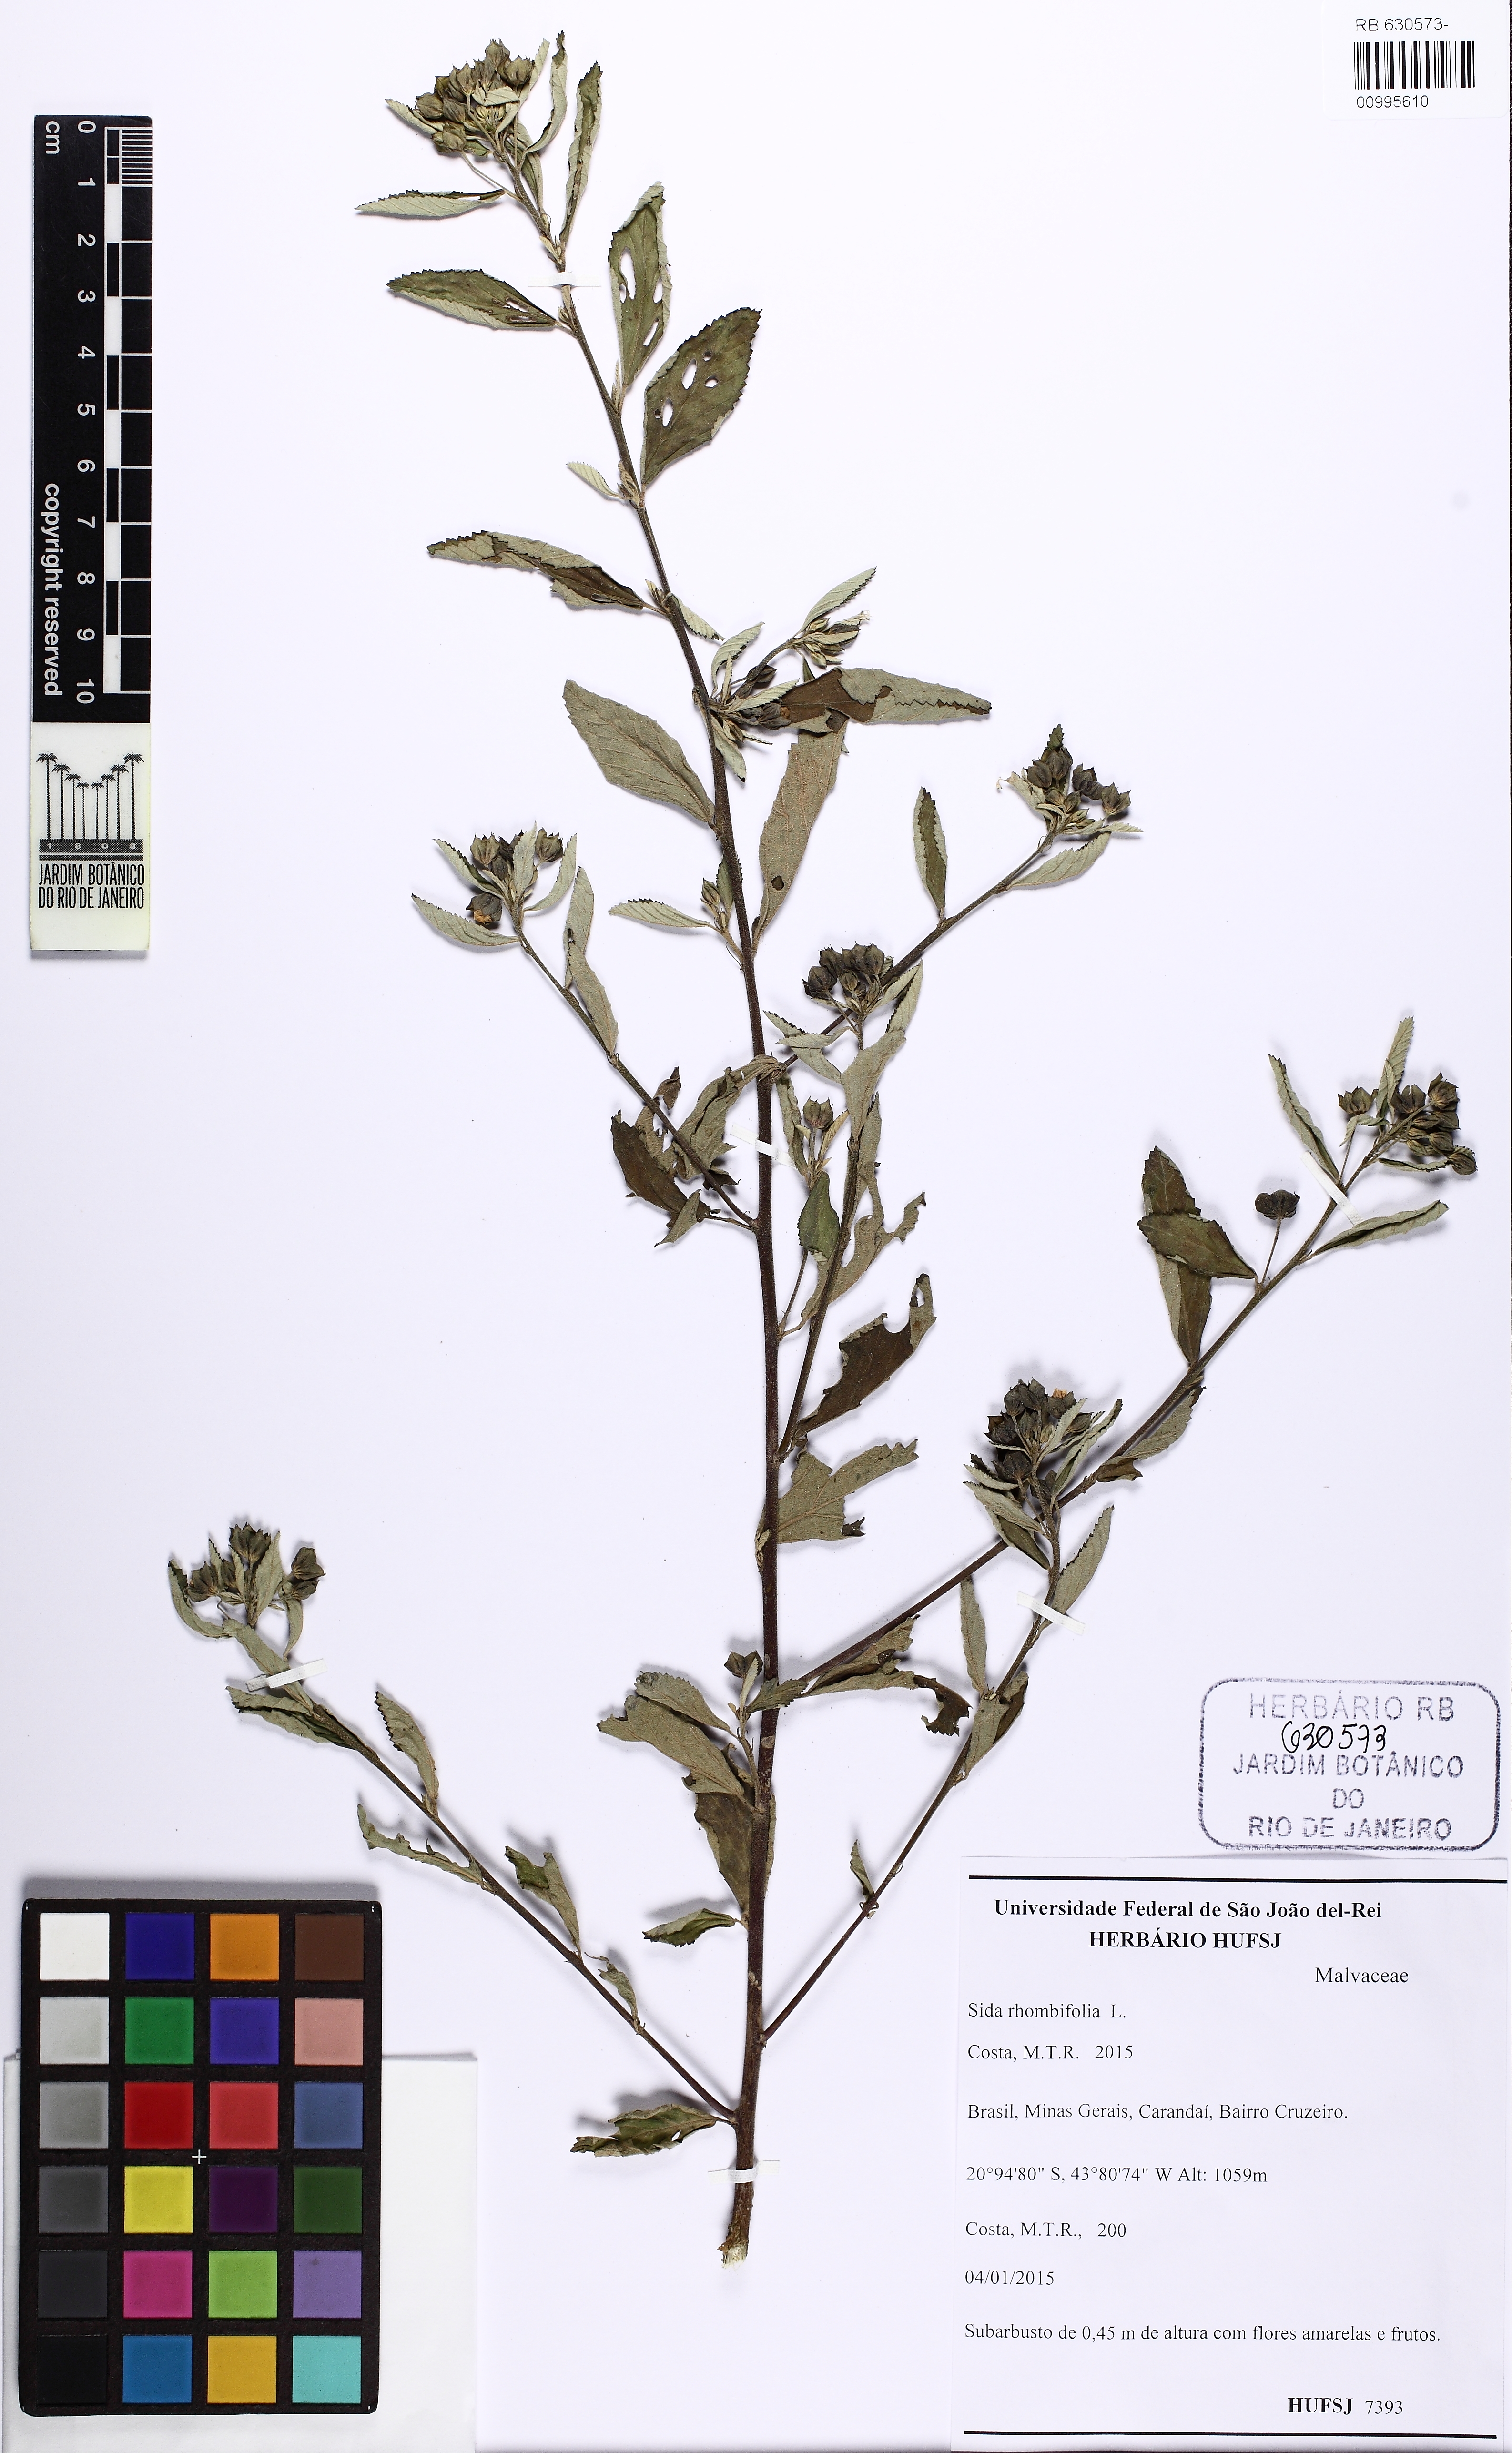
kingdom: Plantae
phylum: Tracheophyta
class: Magnoliopsida
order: Malvales
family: Malvaceae
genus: Sida
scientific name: Sida rhombifolia
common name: Queensland-hemp
